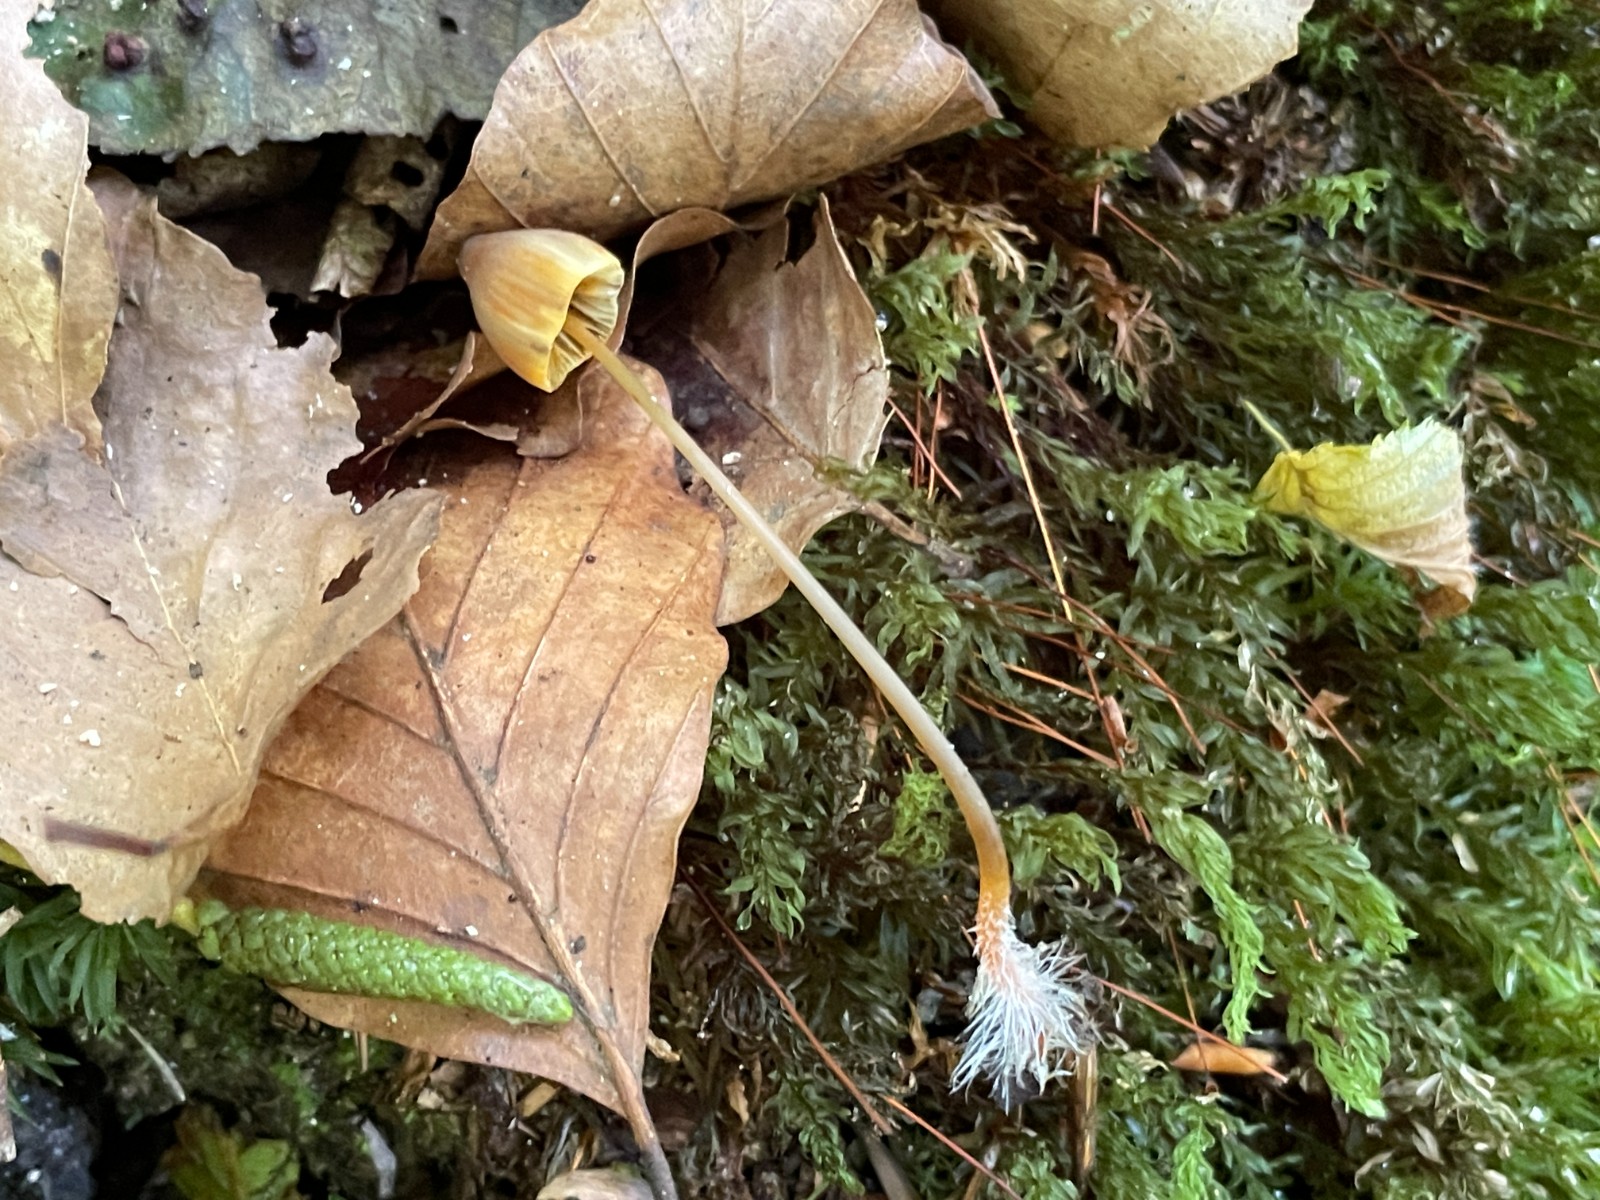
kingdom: Fungi
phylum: Basidiomycota
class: Agaricomycetes
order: Agaricales
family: Mycenaceae
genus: Mycena
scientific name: Mycena crocata
